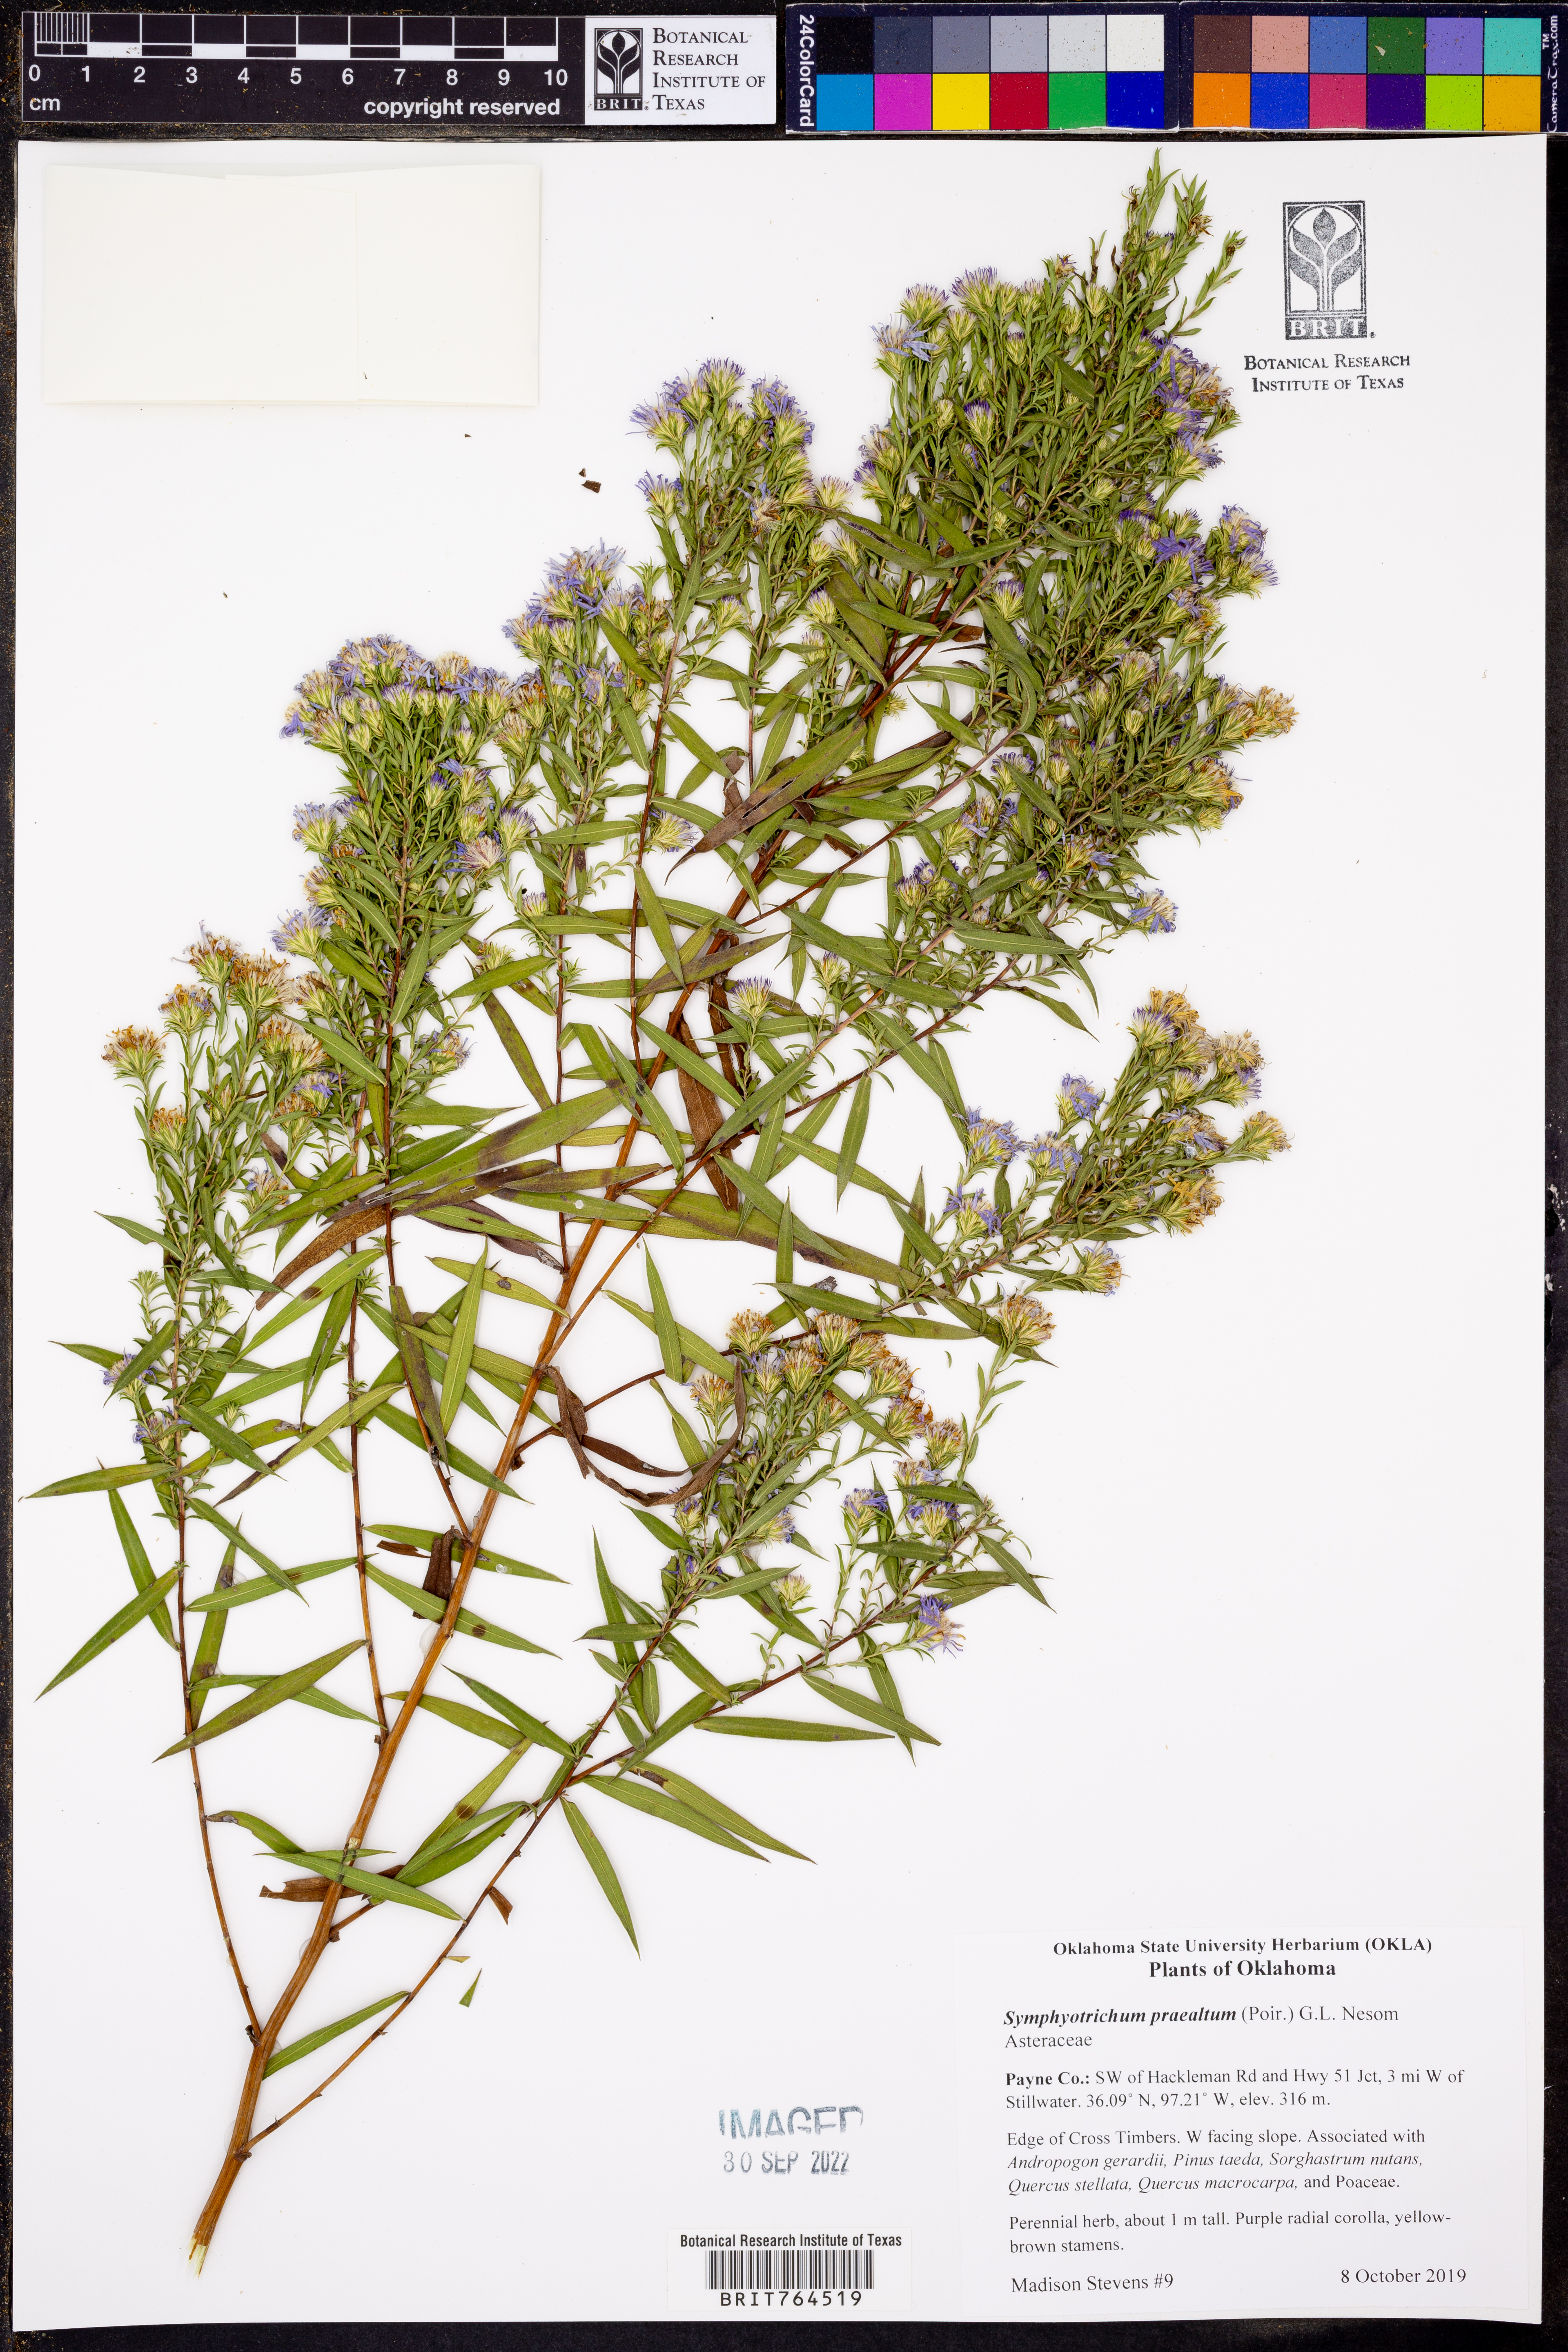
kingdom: Plantae
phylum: Tracheophyta
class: Magnoliopsida
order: Asterales
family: Asteraceae
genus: Symphyotrichum
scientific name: Symphyotrichum praealtum
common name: Willow aster
